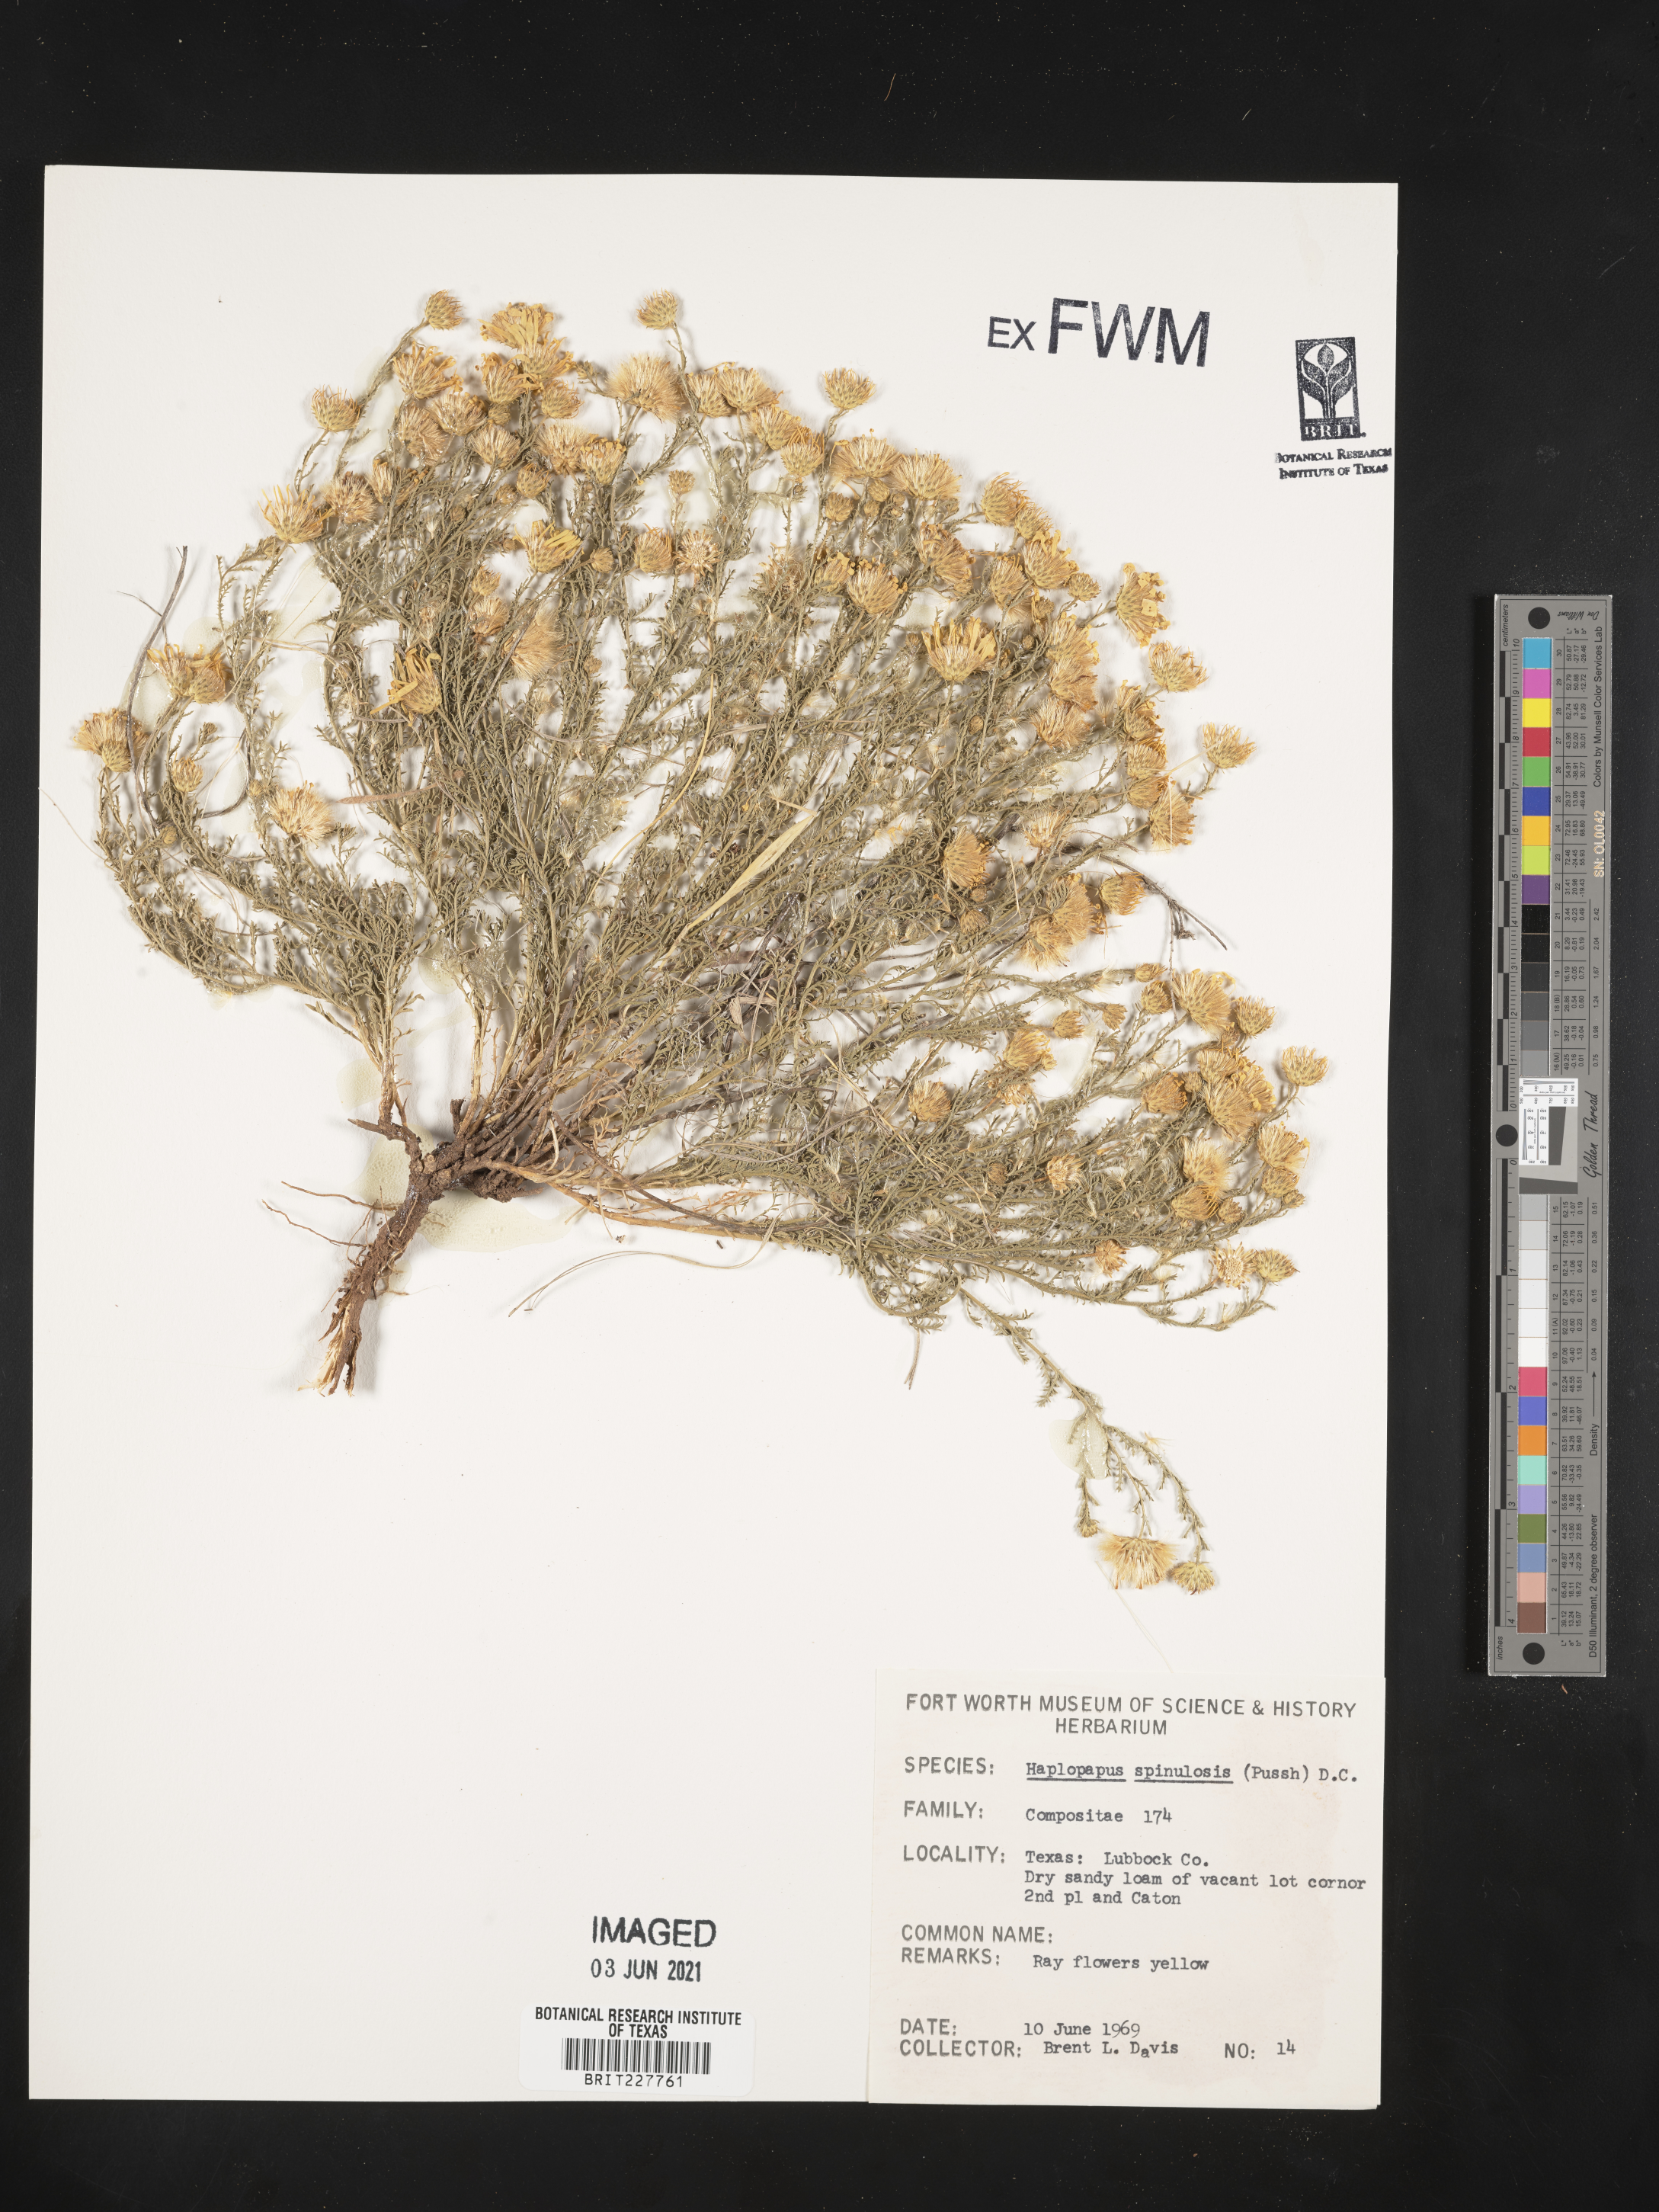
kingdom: Plantae
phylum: Tracheophyta
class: Magnoliopsida
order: Asterales
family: Asteraceae
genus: Xanthisma
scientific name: Xanthisma spinulosum
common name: Spiny goldenweed
